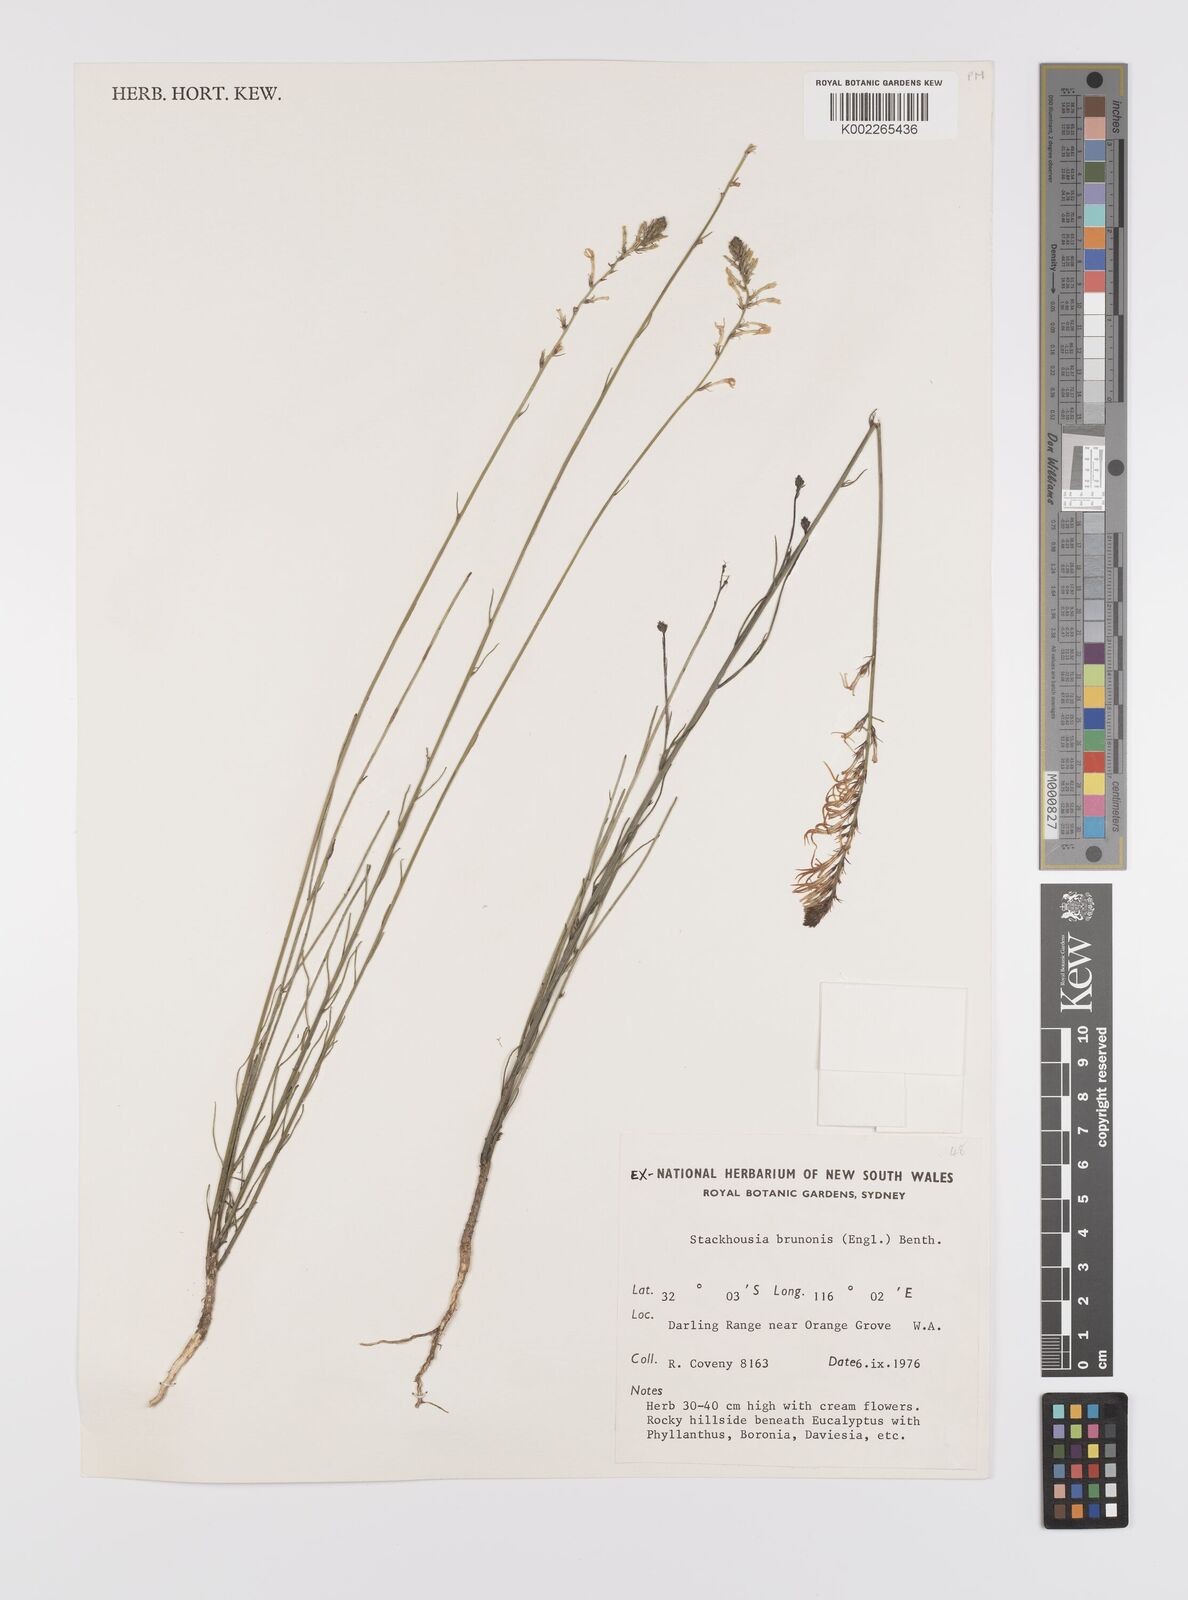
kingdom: Plantae
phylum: Tracheophyta
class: Magnoliopsida
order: Celastrales
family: Celastraceae
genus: Tripterococcus
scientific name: Tripterococcus brunonis
